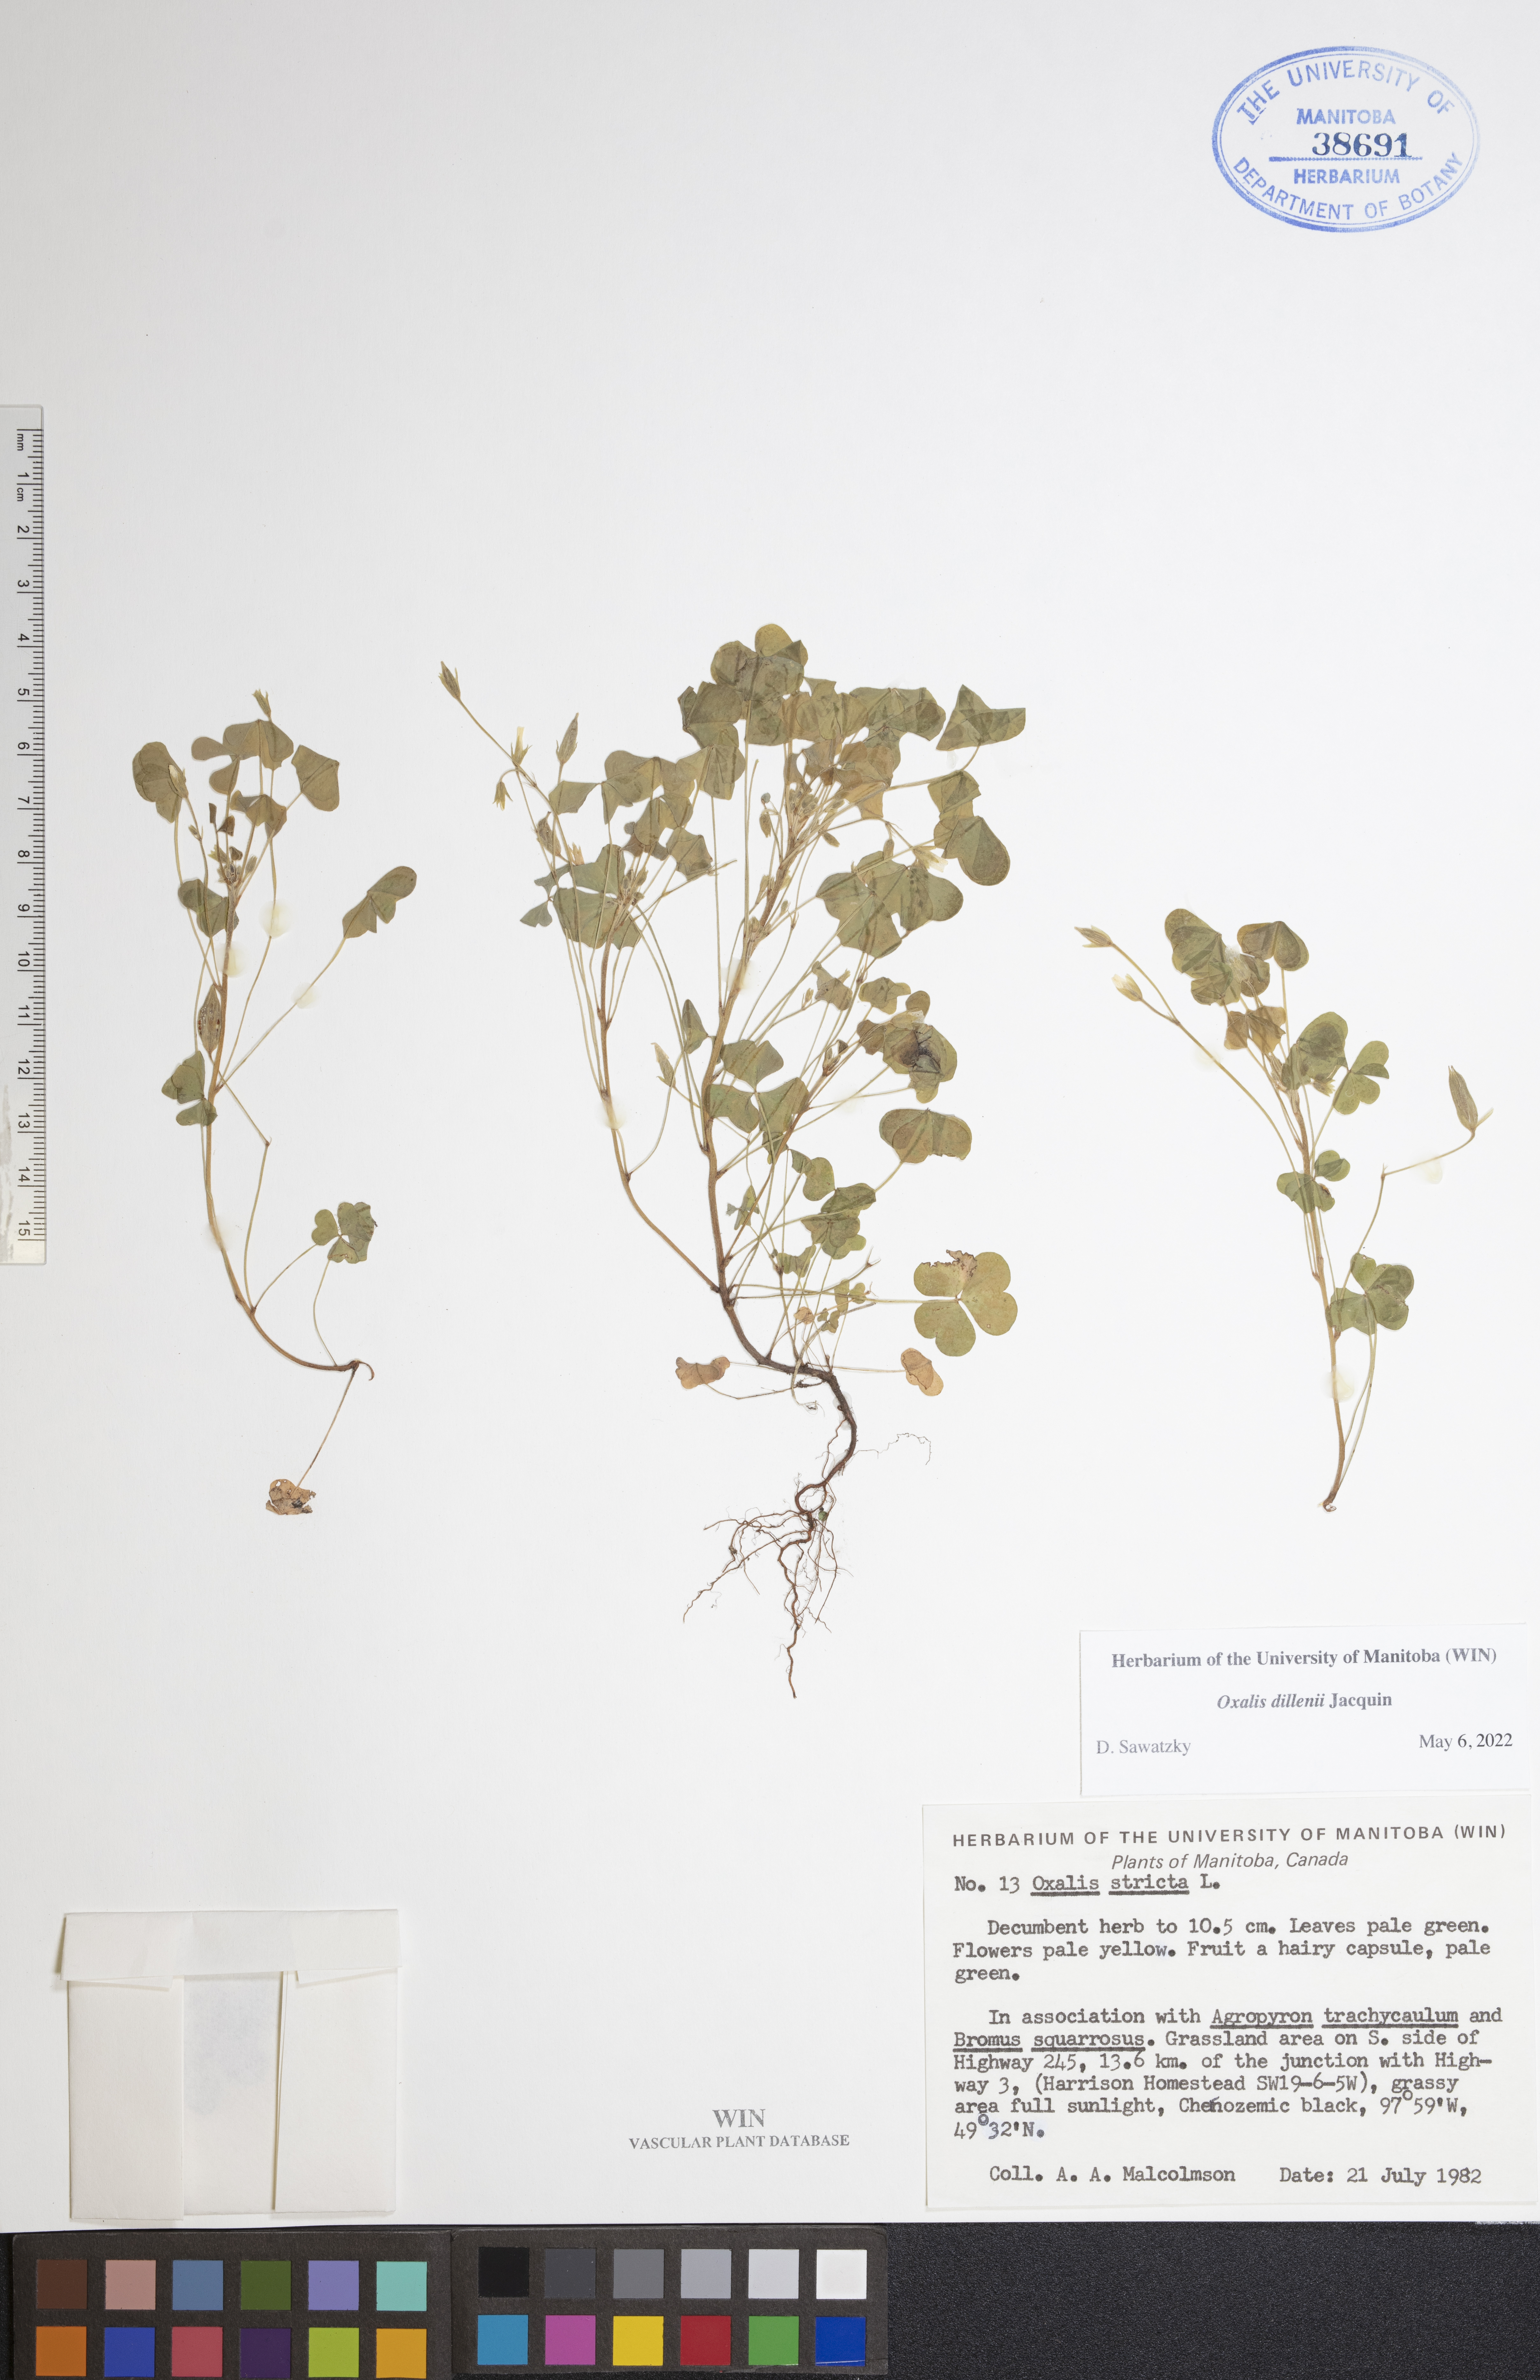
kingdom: Plantae
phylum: Tracheophyta
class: Magnoliopsida
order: Oxalidales
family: Oxalidaceae
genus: Oxalis
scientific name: Oxalis dillenii
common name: Sussex yellow-sorrel
